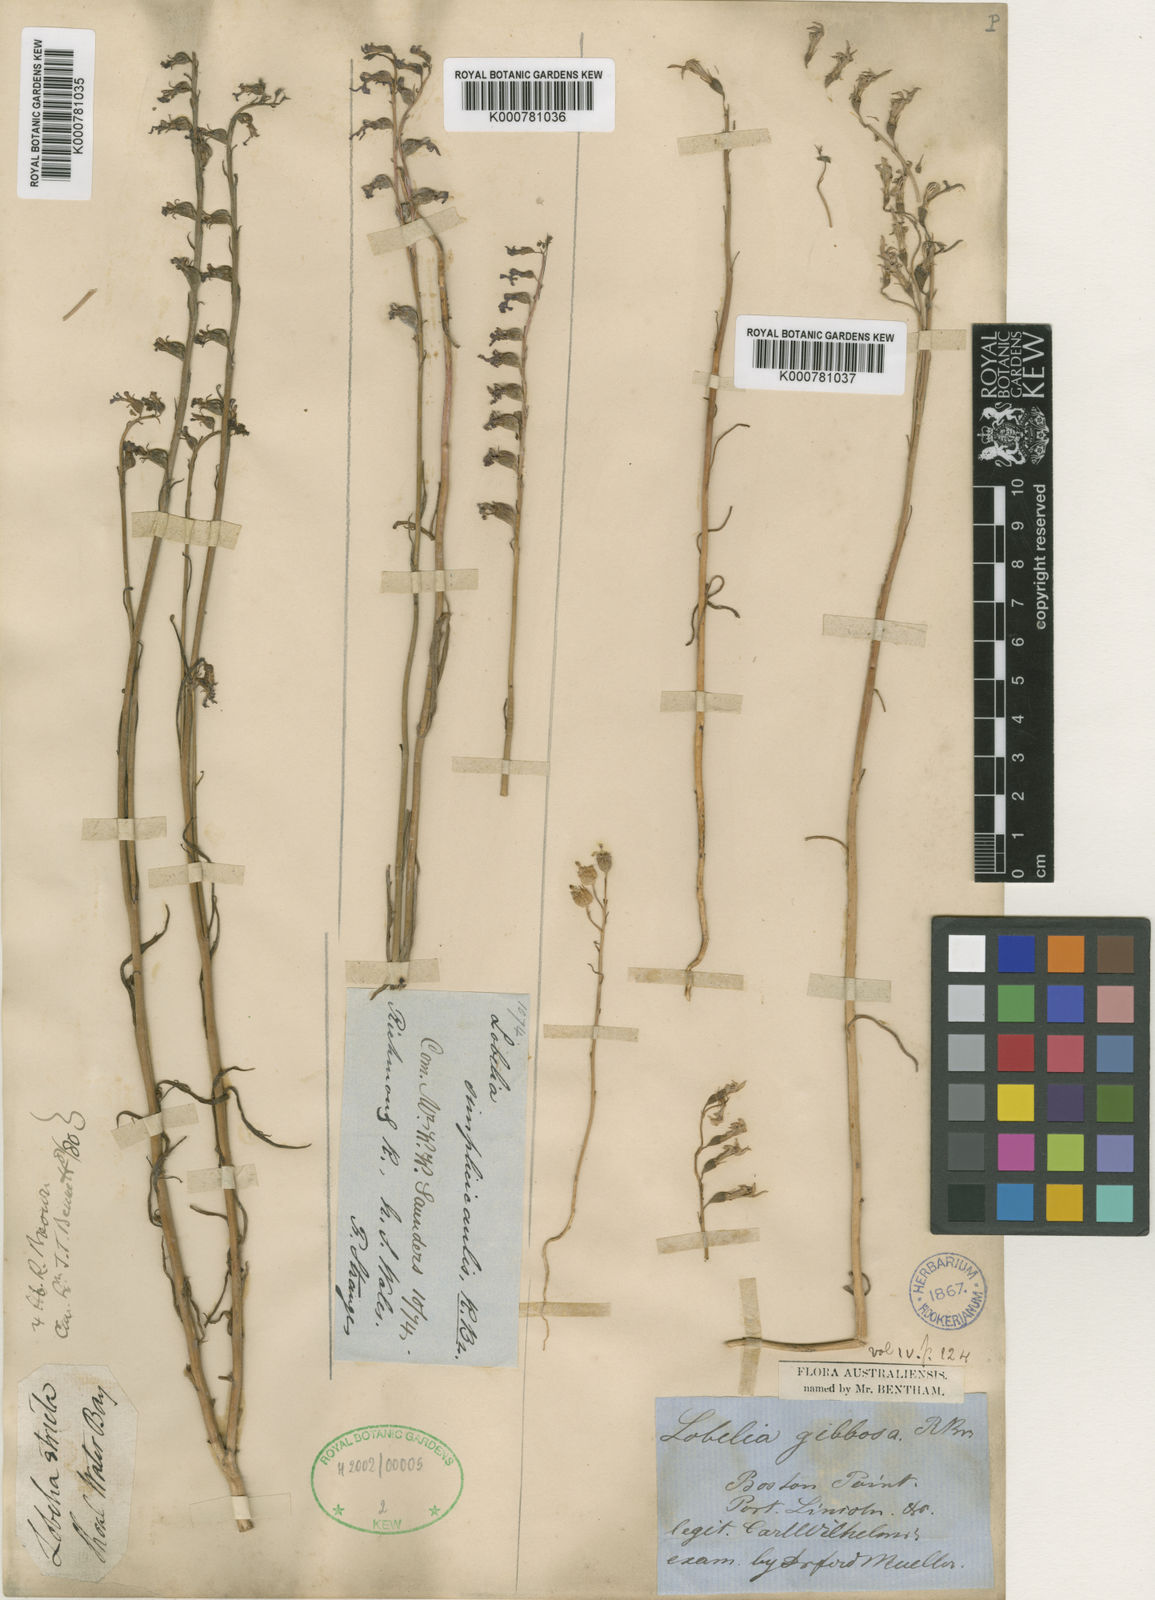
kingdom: Plantae
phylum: Tracheophyta
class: Magnoliopsida
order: Asterales
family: Campanulaceae
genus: Lobelia
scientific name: Lobelia
